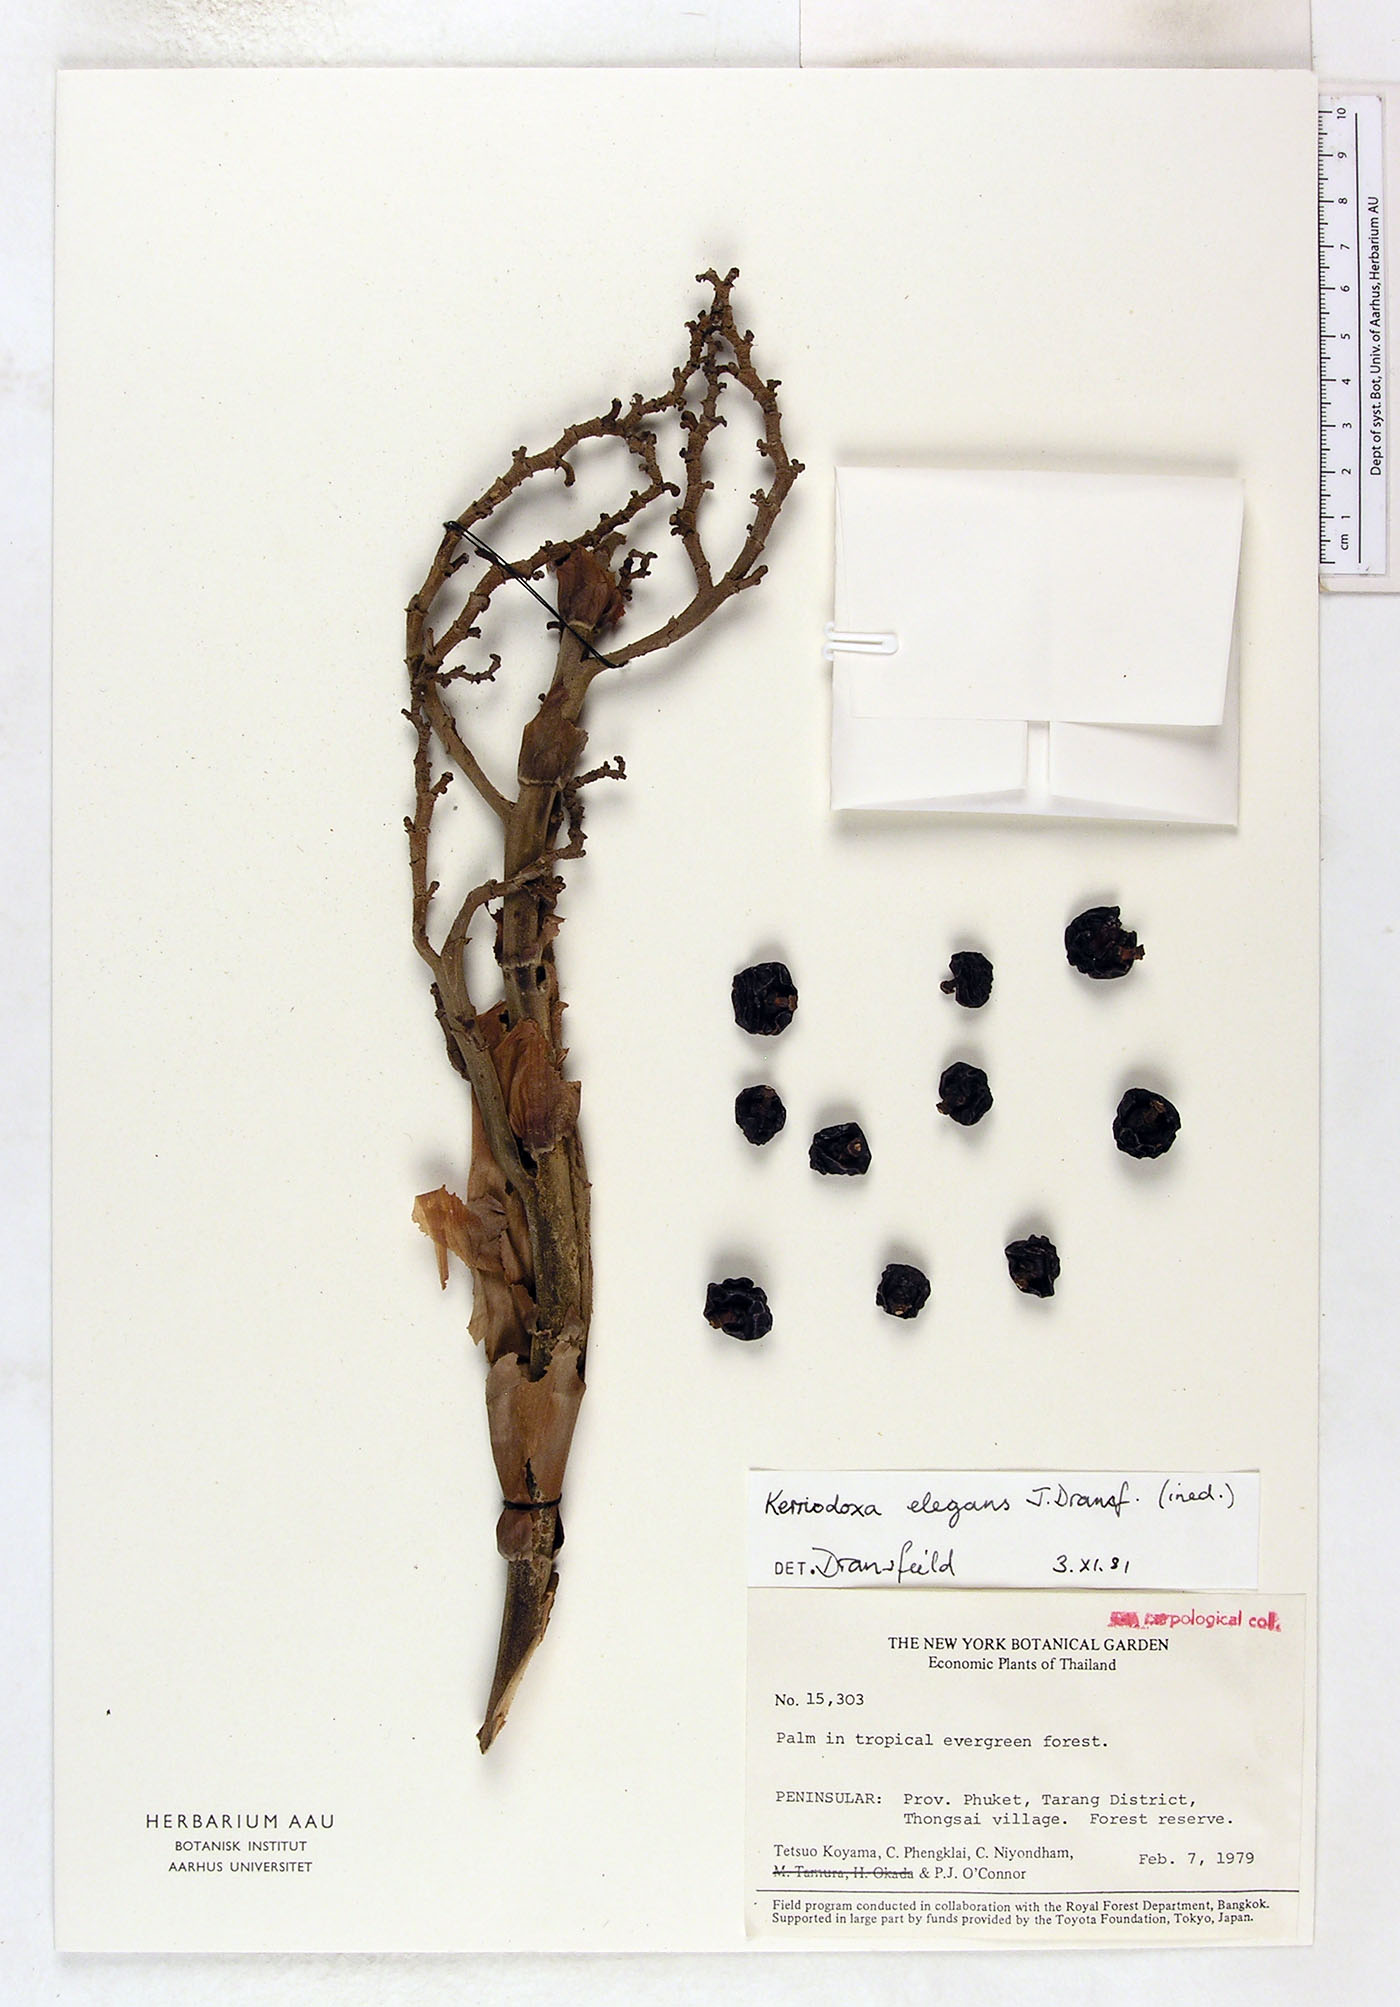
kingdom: Plantae
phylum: Tracheophyta
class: Liliopsida
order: Arecales
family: Arecaceae
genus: Kerriodoxa
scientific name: Kerriodoxa elegans
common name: Elephant palm
